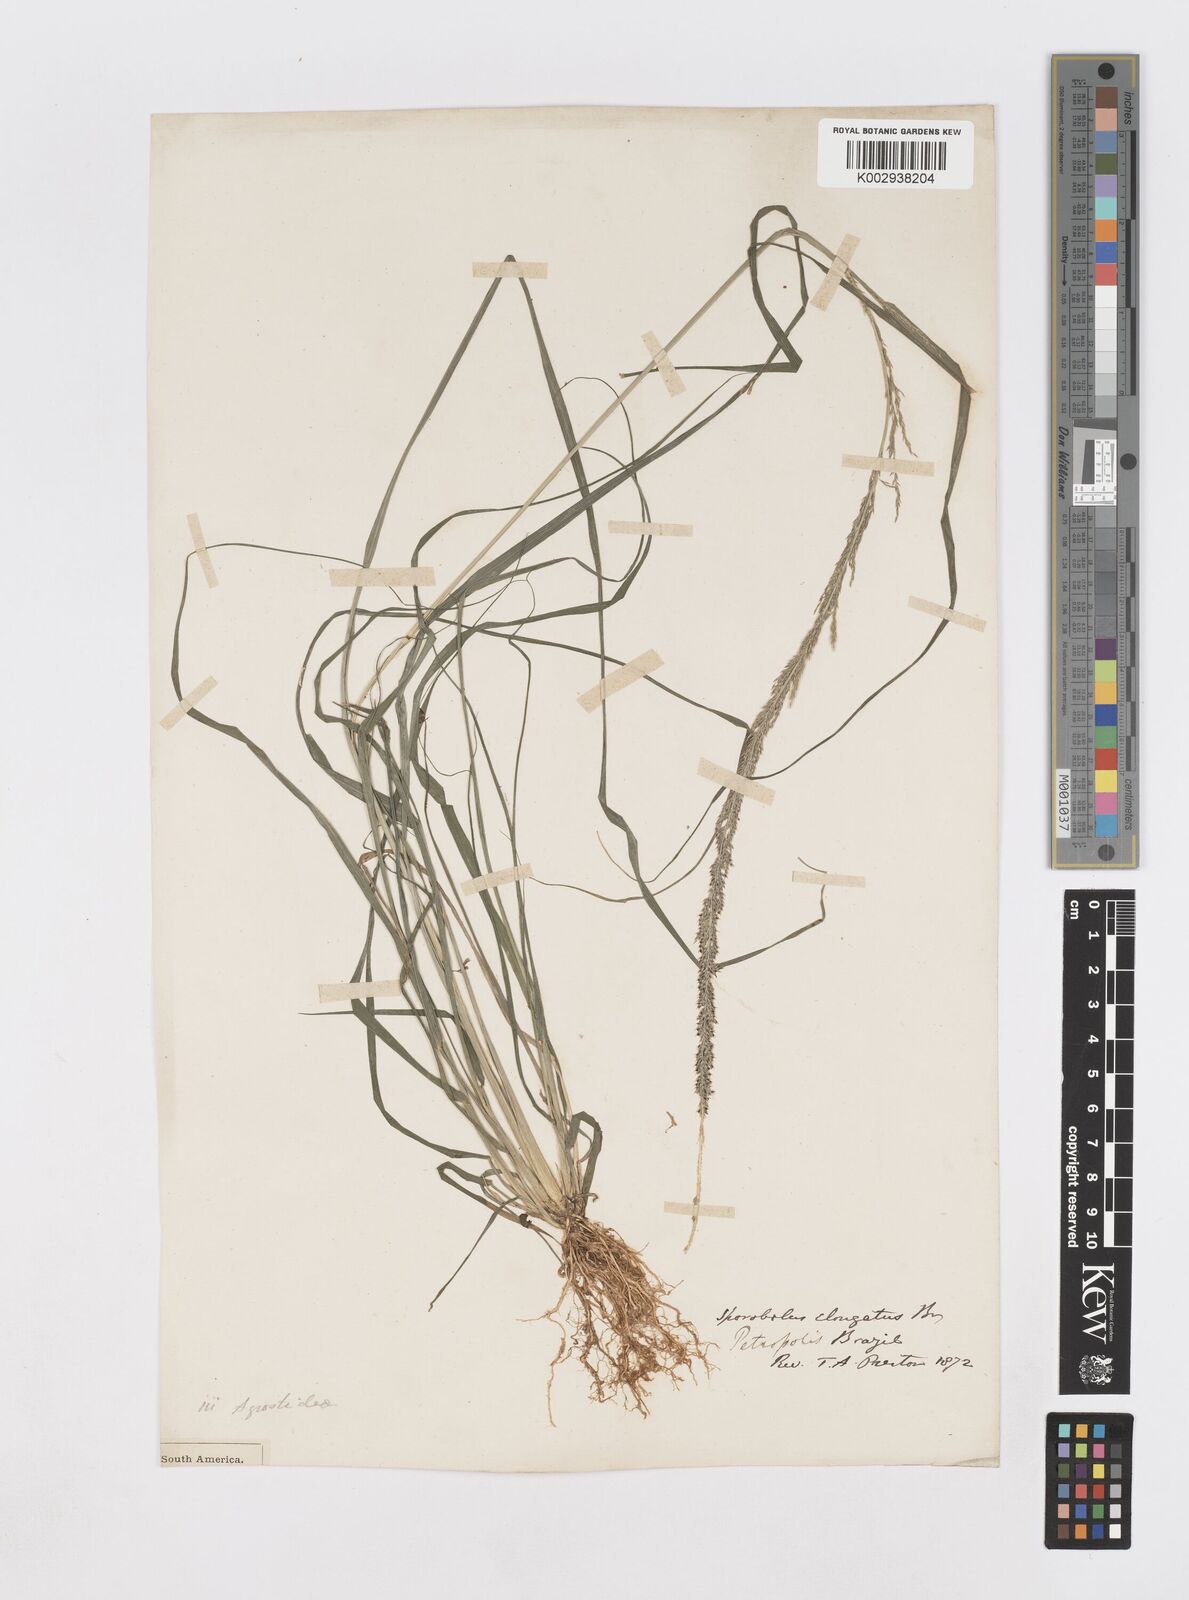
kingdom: Plantae
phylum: Tracheophyta
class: Liliopsida
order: Poales
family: Poaceae
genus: Sporobolus
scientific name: Sporobolus indicus
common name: Smut grass
